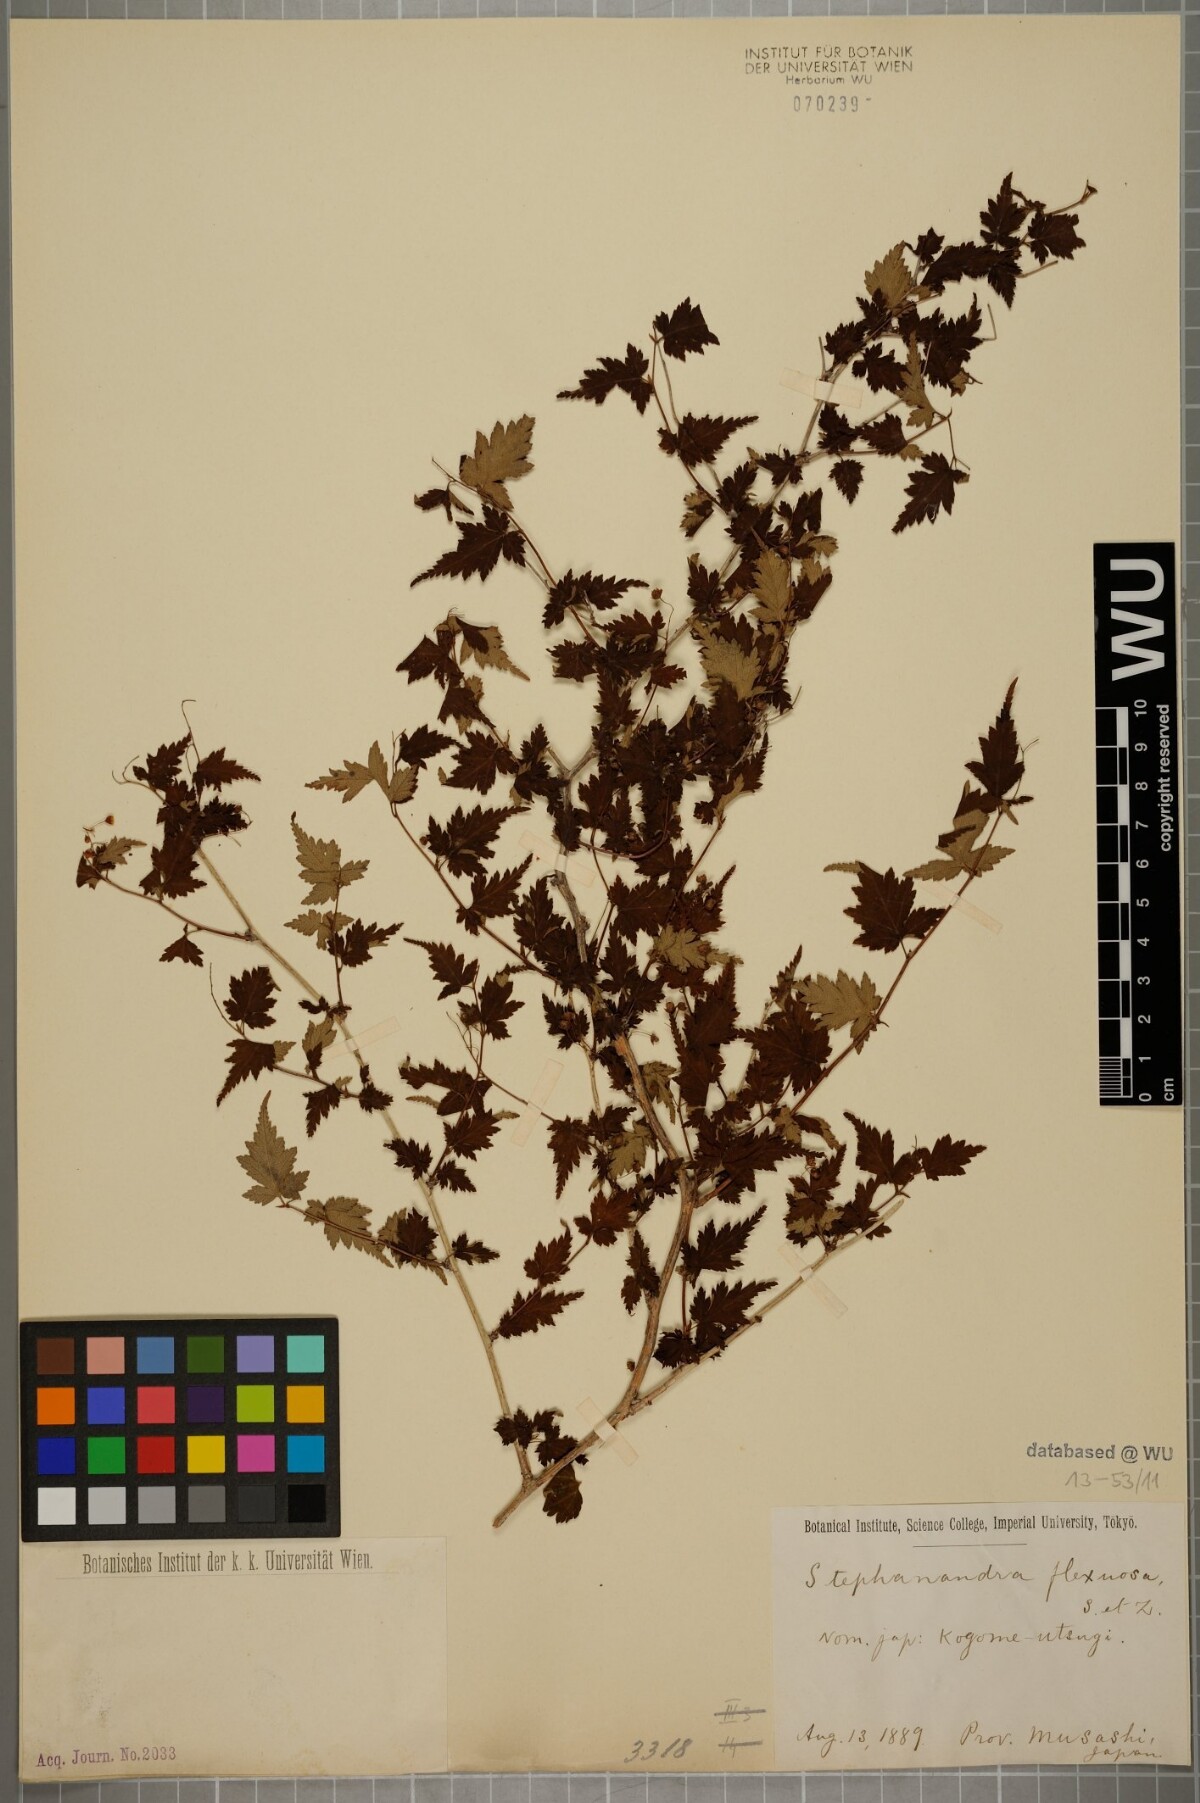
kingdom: Plantae
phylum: Tracheophyta
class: Magnoliopsida
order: Rosales
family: Rosaceae
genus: Neillia
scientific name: Neillia incisa
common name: Laceshrub
